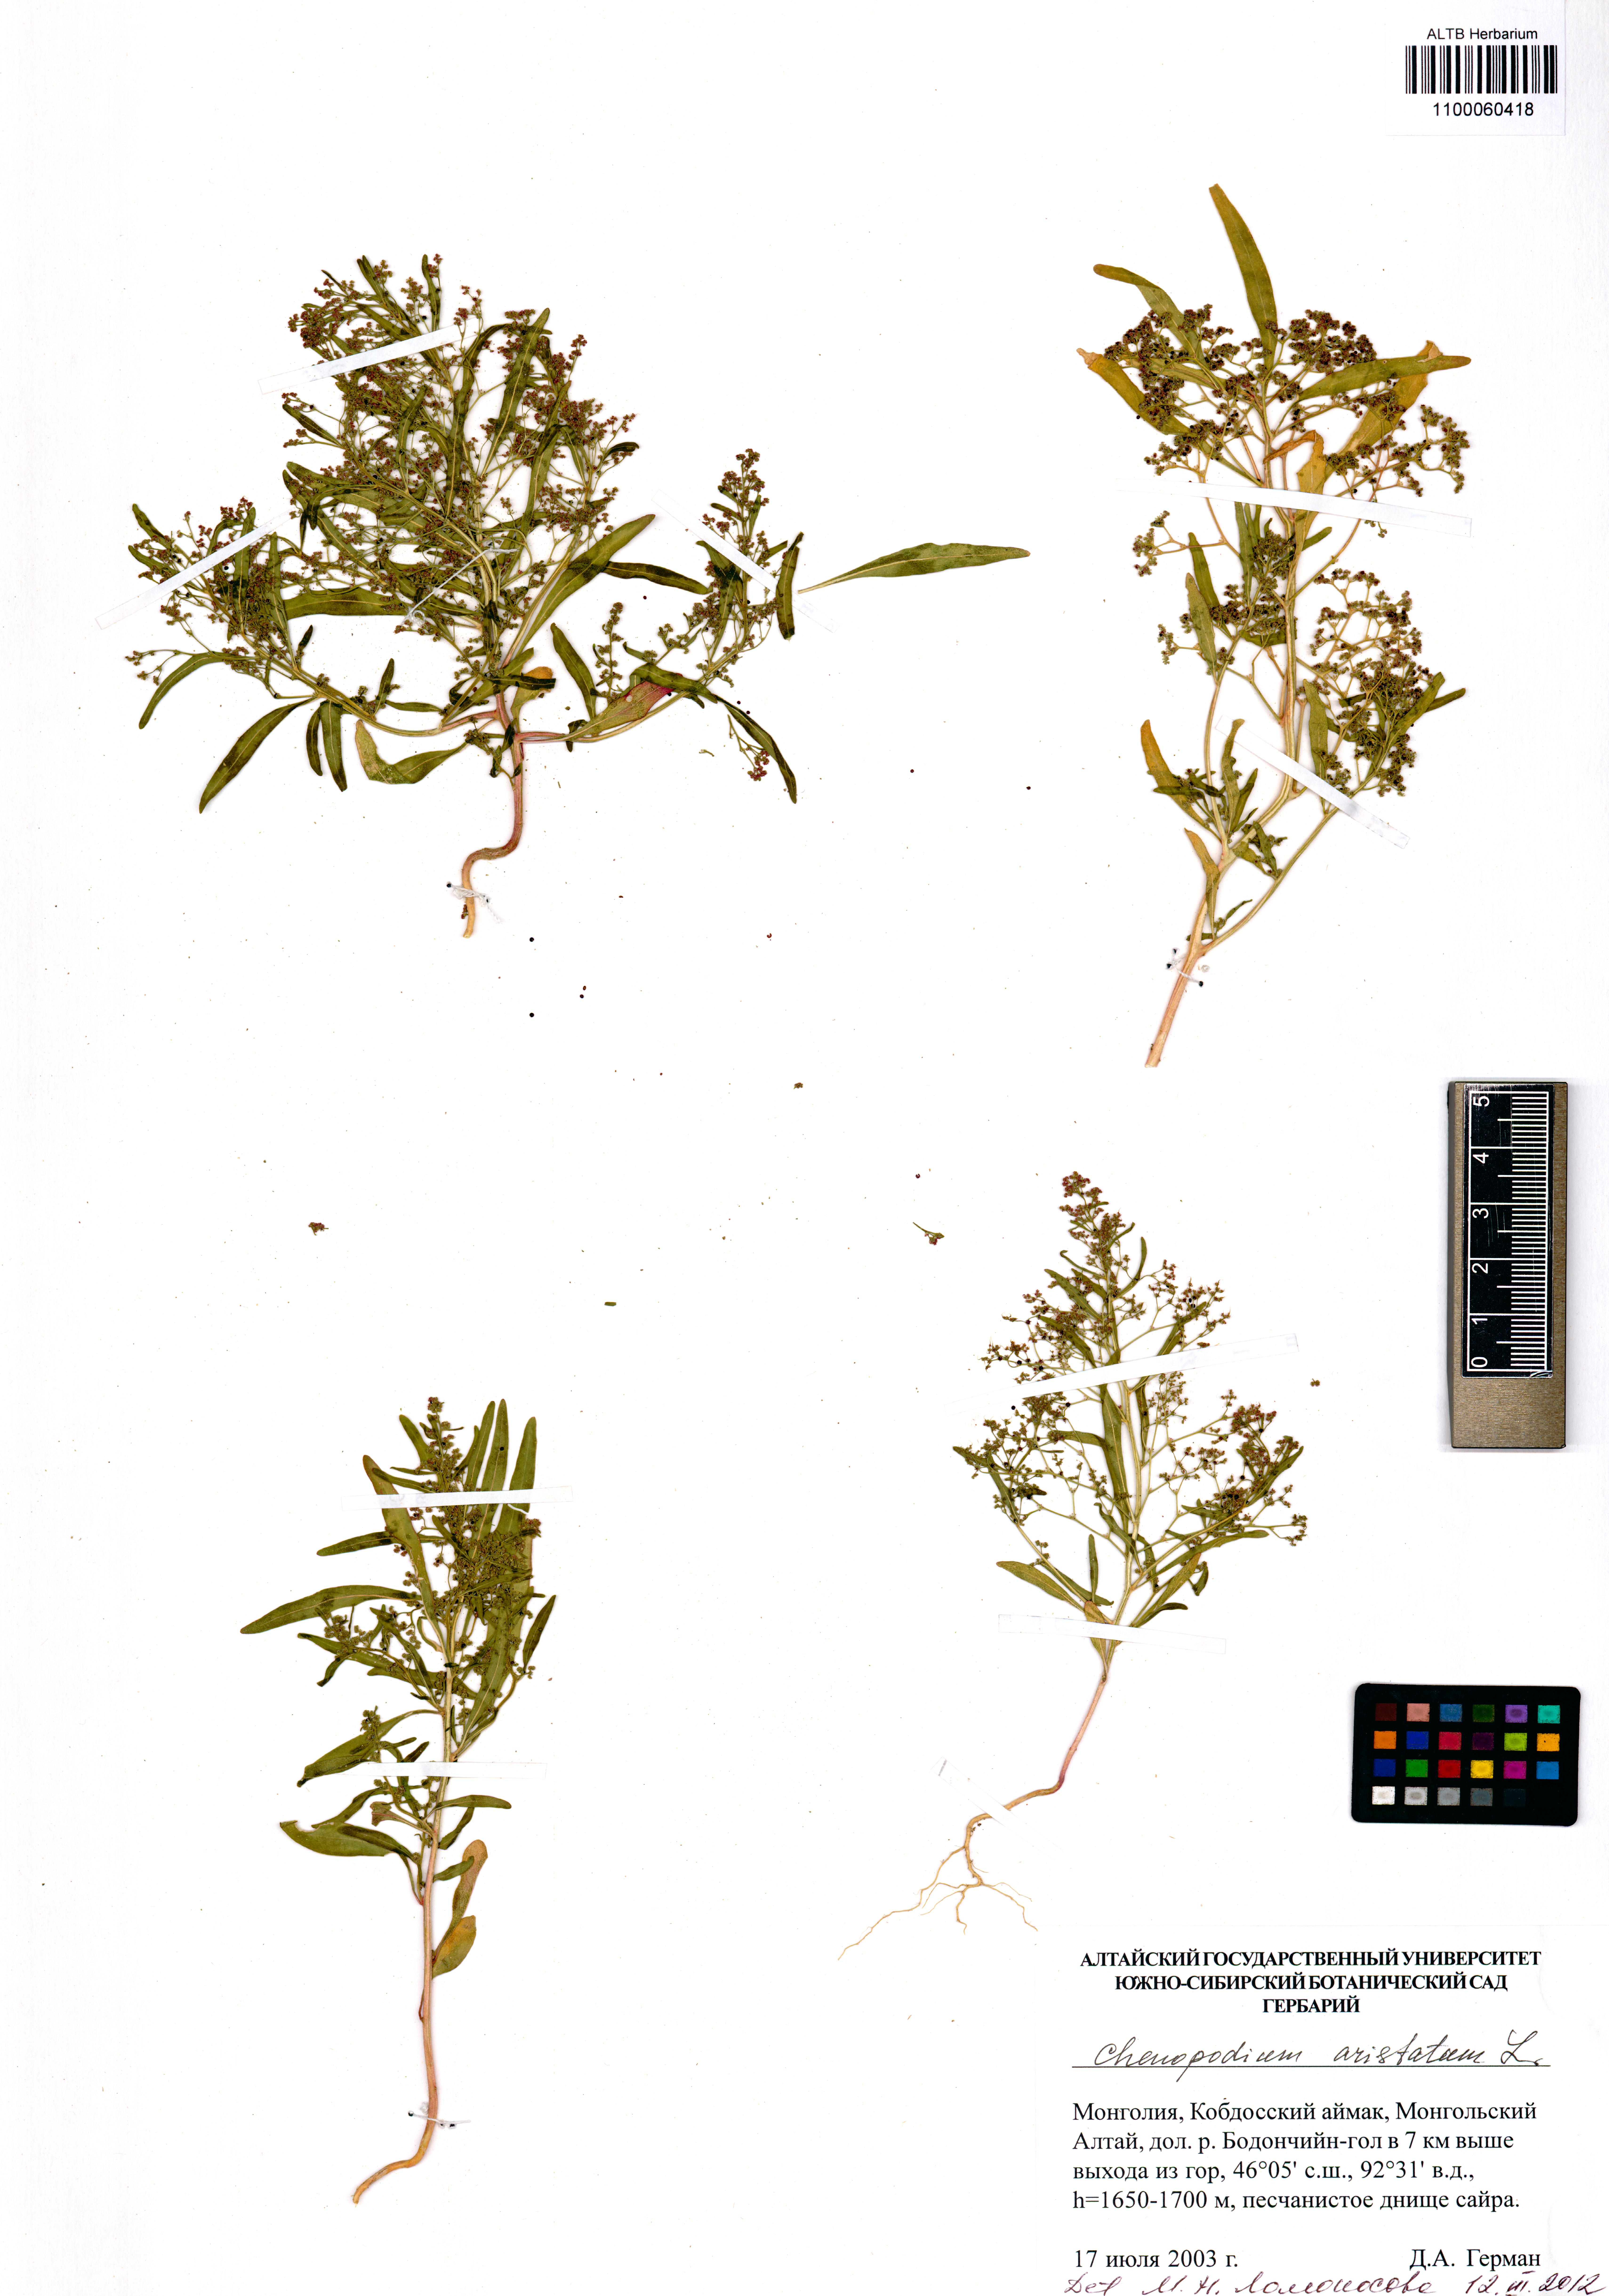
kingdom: Plantae
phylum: Tracheophyta
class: Magnoliopsida
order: Caryophyllales
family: Amaranthaceae
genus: Teloxys
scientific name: Teloxys aristata
